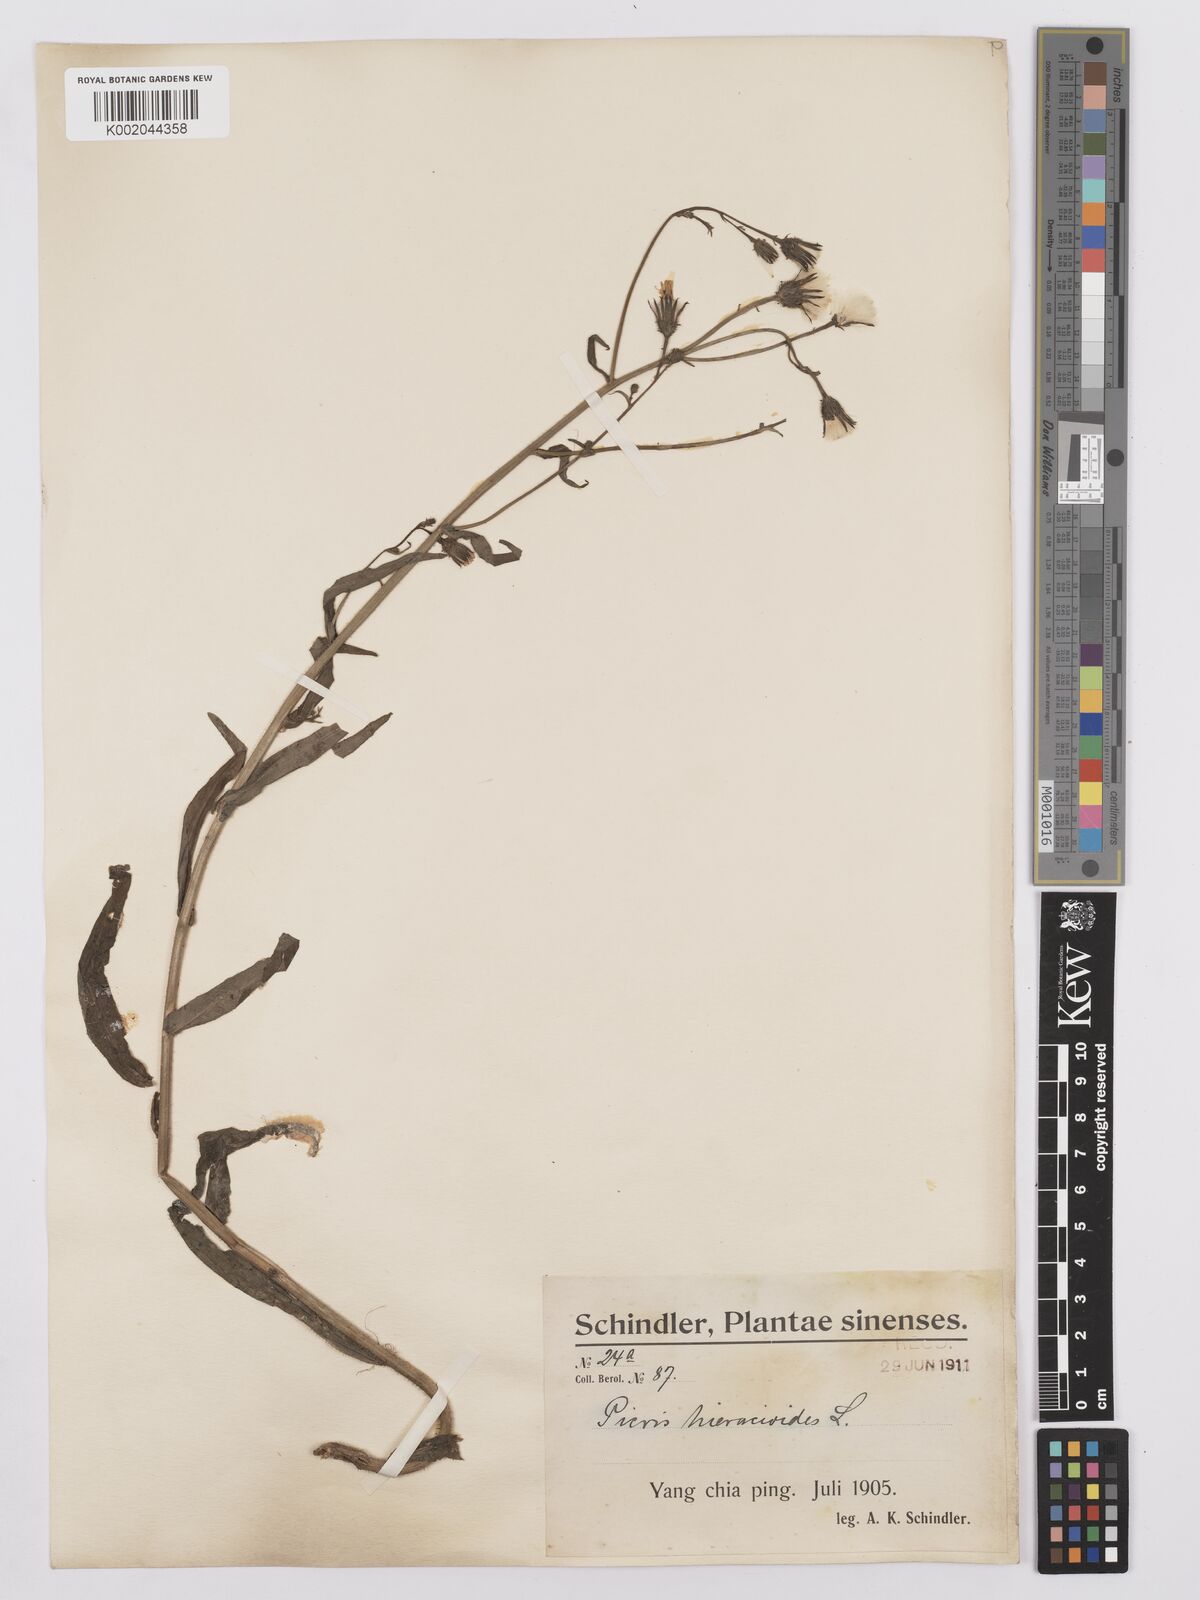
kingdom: Plantae
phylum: Tracheophyta
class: Magnoliopsida
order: Asterales
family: Asteraceae
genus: Picris
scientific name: Picris hieracioides
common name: Hawkweed oxtongue
